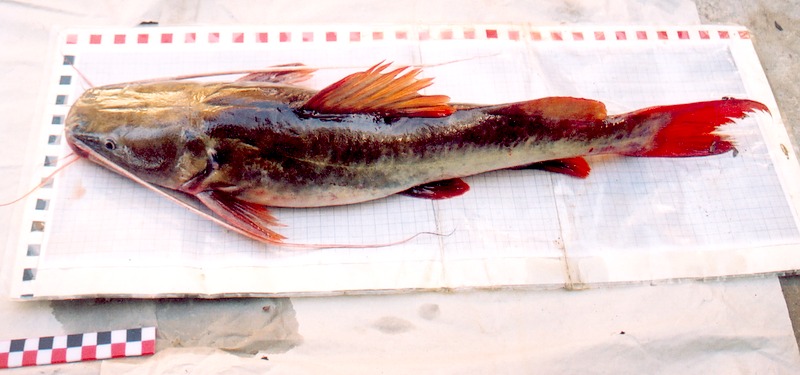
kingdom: Animalia
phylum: Chordata
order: Siluriformes
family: Bagridae
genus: Hemibagrus
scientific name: Hemibagrus wyckioides
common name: Asian red tailed catfish
